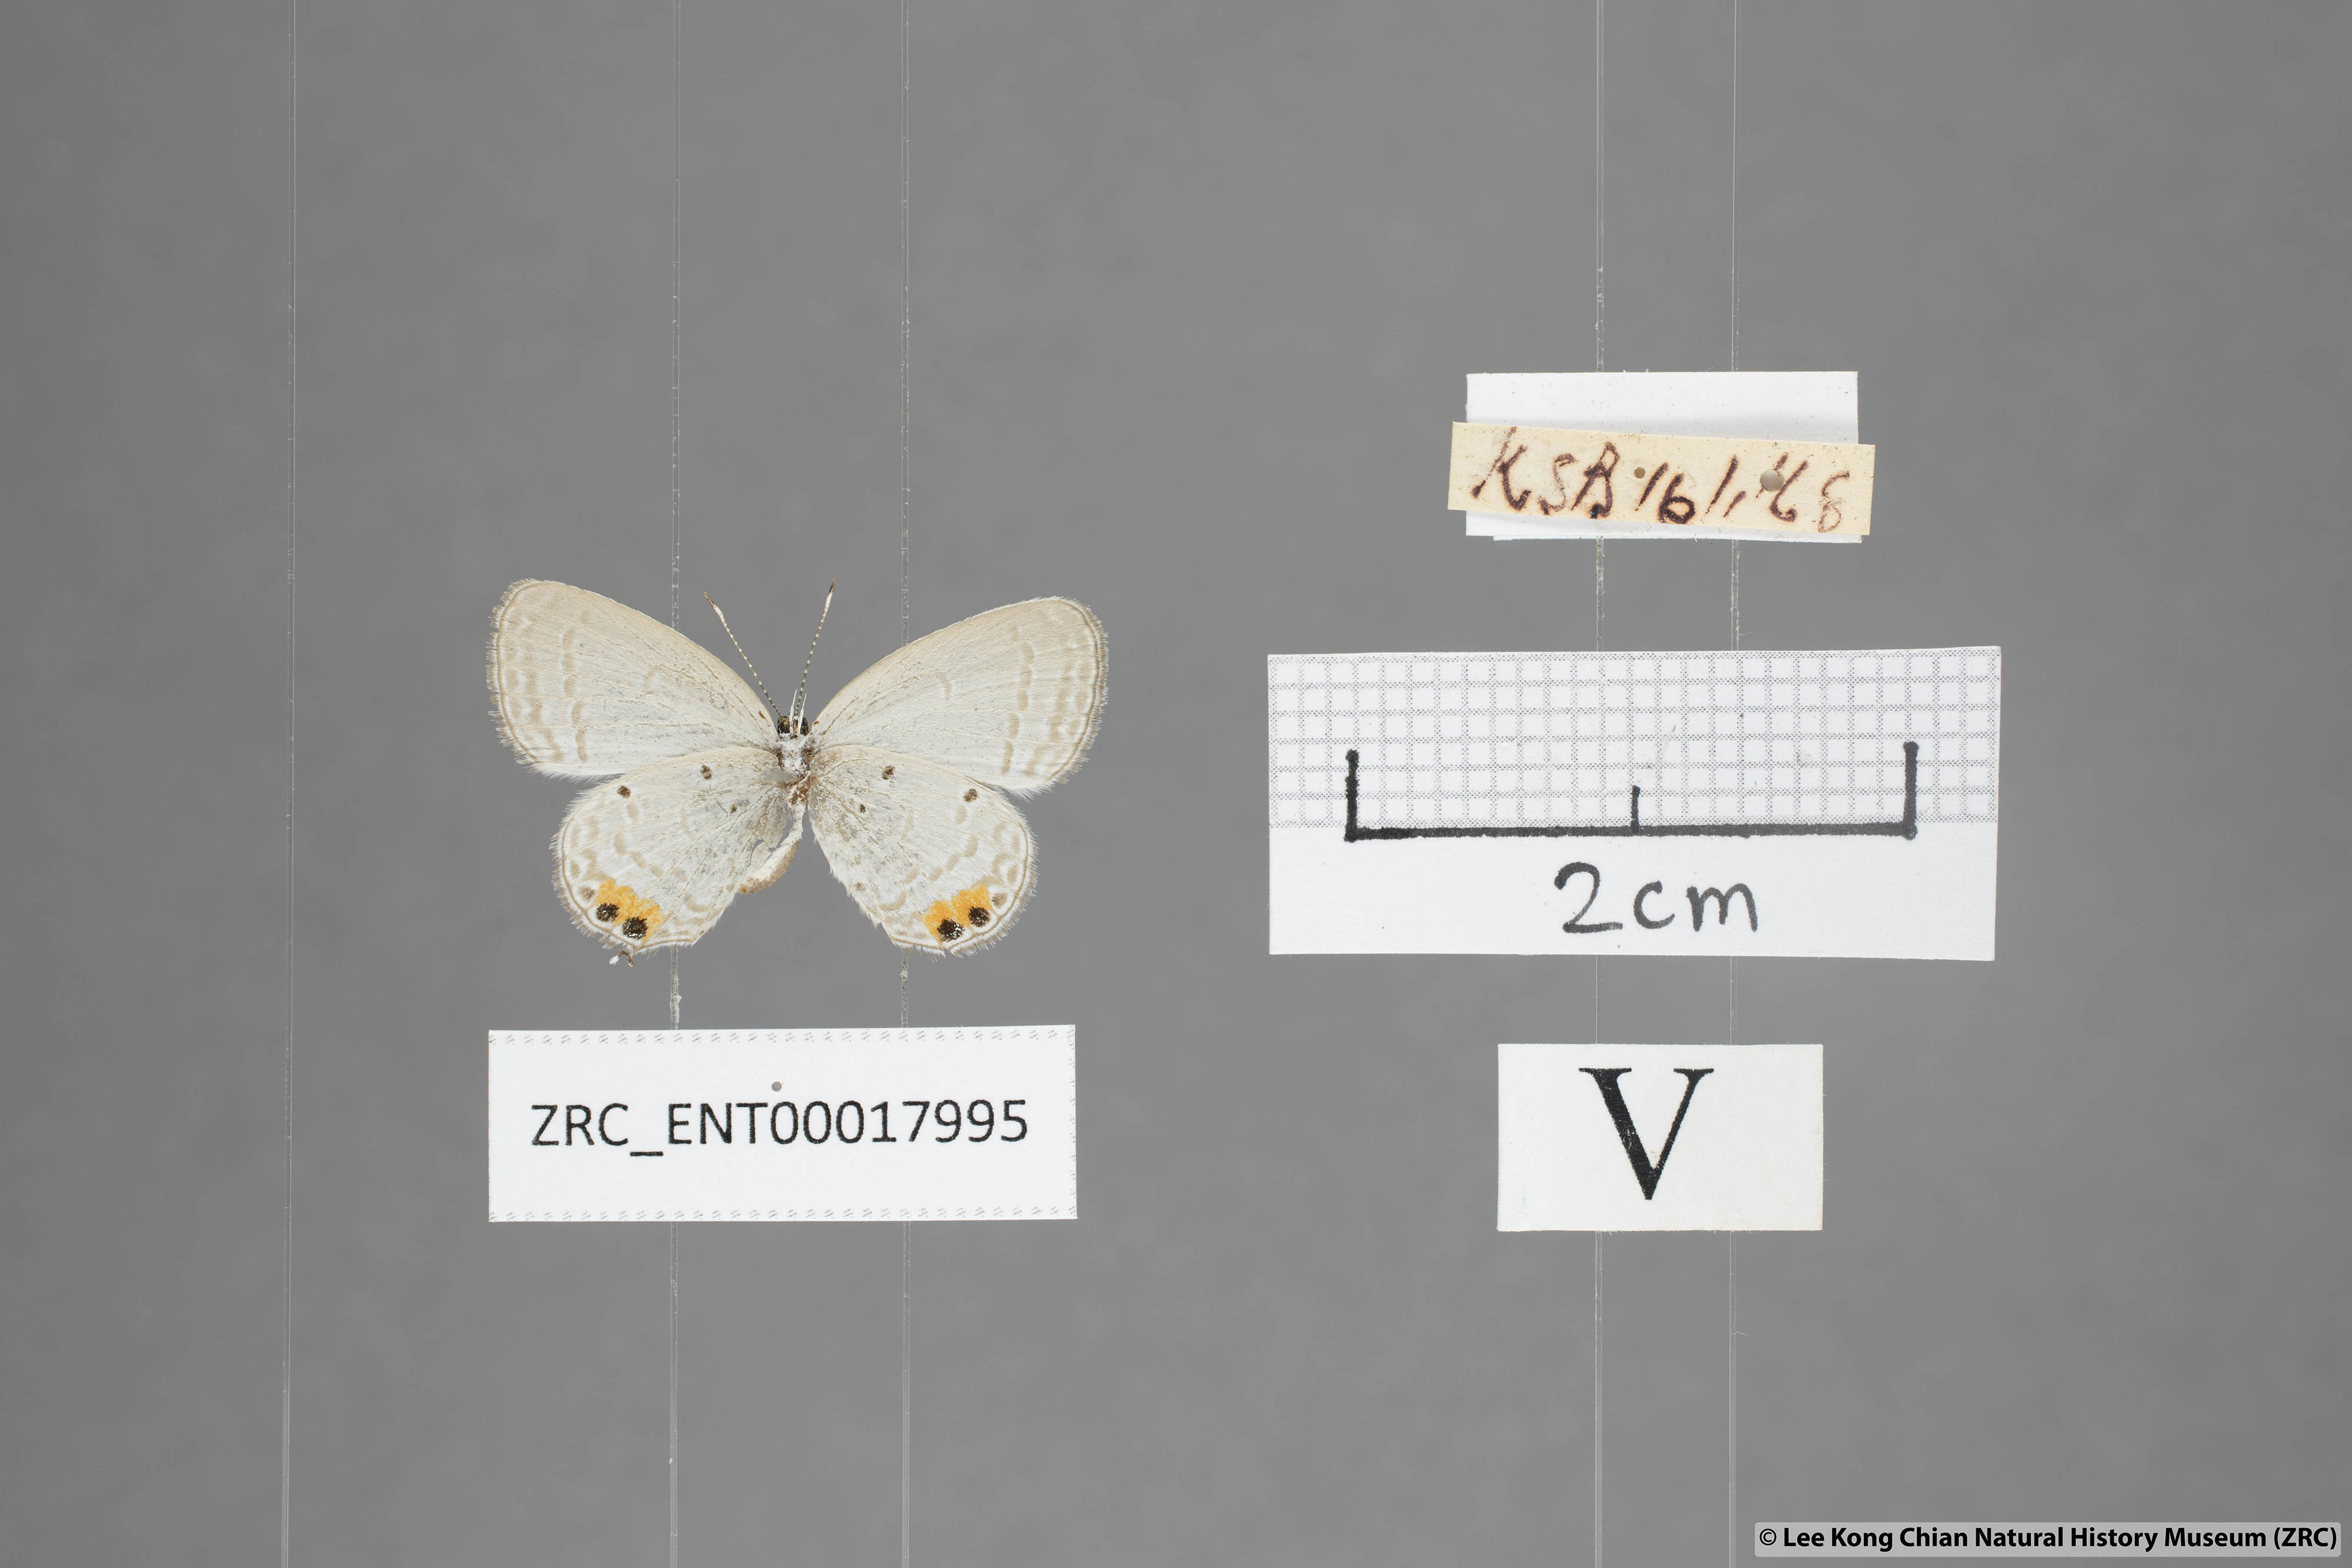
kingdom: Animalia
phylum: Arthropoda
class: Insecta
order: Lepidoptera
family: Lycaenidae
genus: Everes
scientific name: Everes lacturnus
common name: Orange-tipped pea-blue
